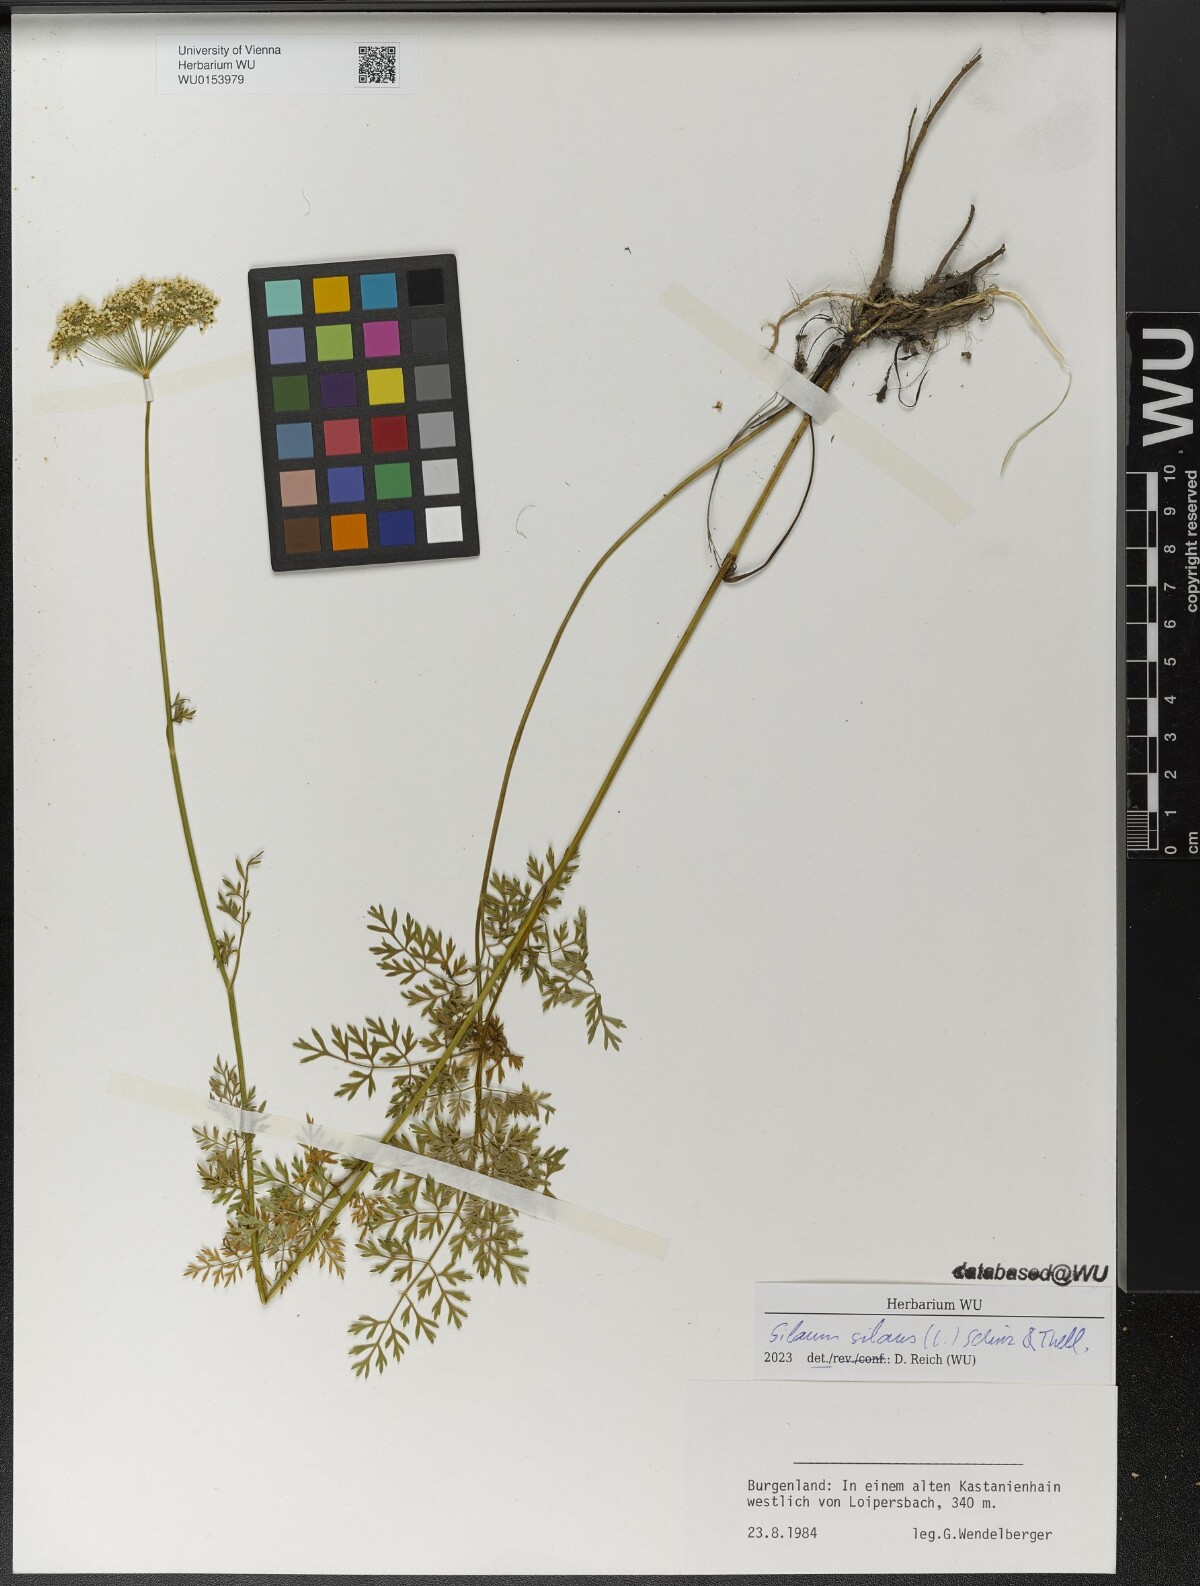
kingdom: Plantae
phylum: Tracheophyta
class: Magnoliopsida
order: Apiales
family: Apiaceae
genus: Silaum
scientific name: Silaum silaus
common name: Pepper-saxifrage
